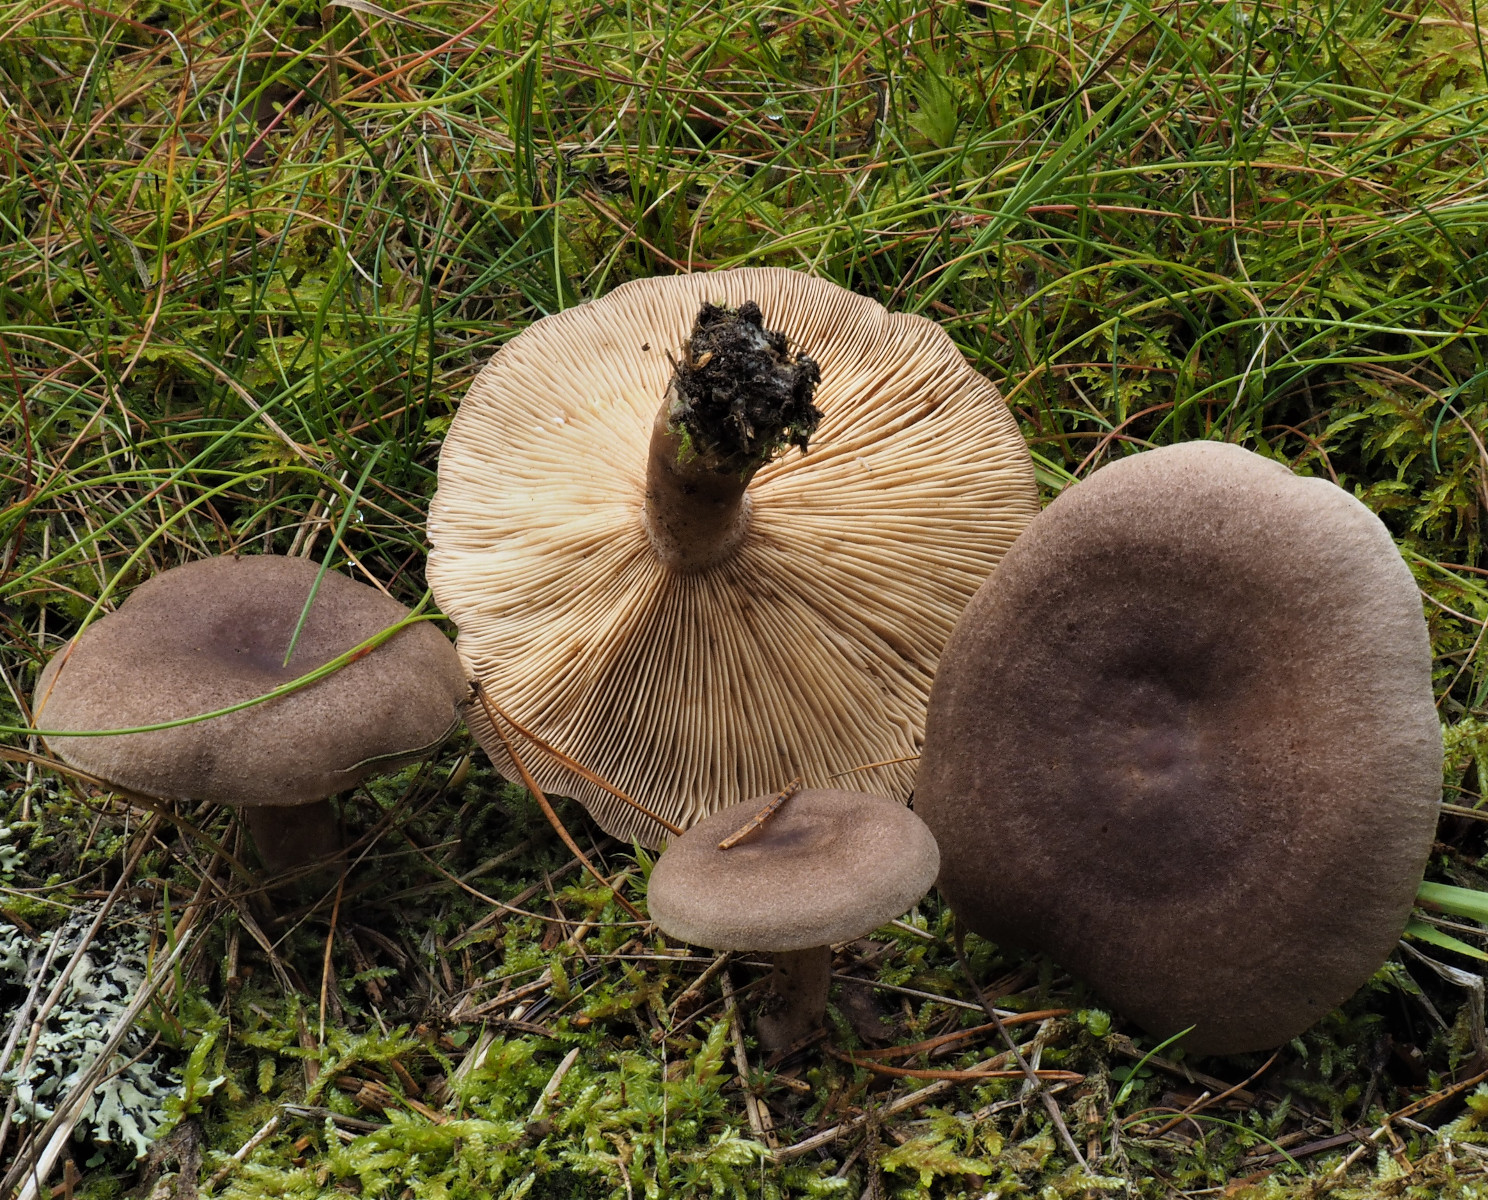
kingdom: Fungi
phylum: Basidiomycota
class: Agaricomycetes
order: Russulales
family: Russulaceae
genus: Lactarius
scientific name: Lactarius mammosus
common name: kokosbrun mælkehat
